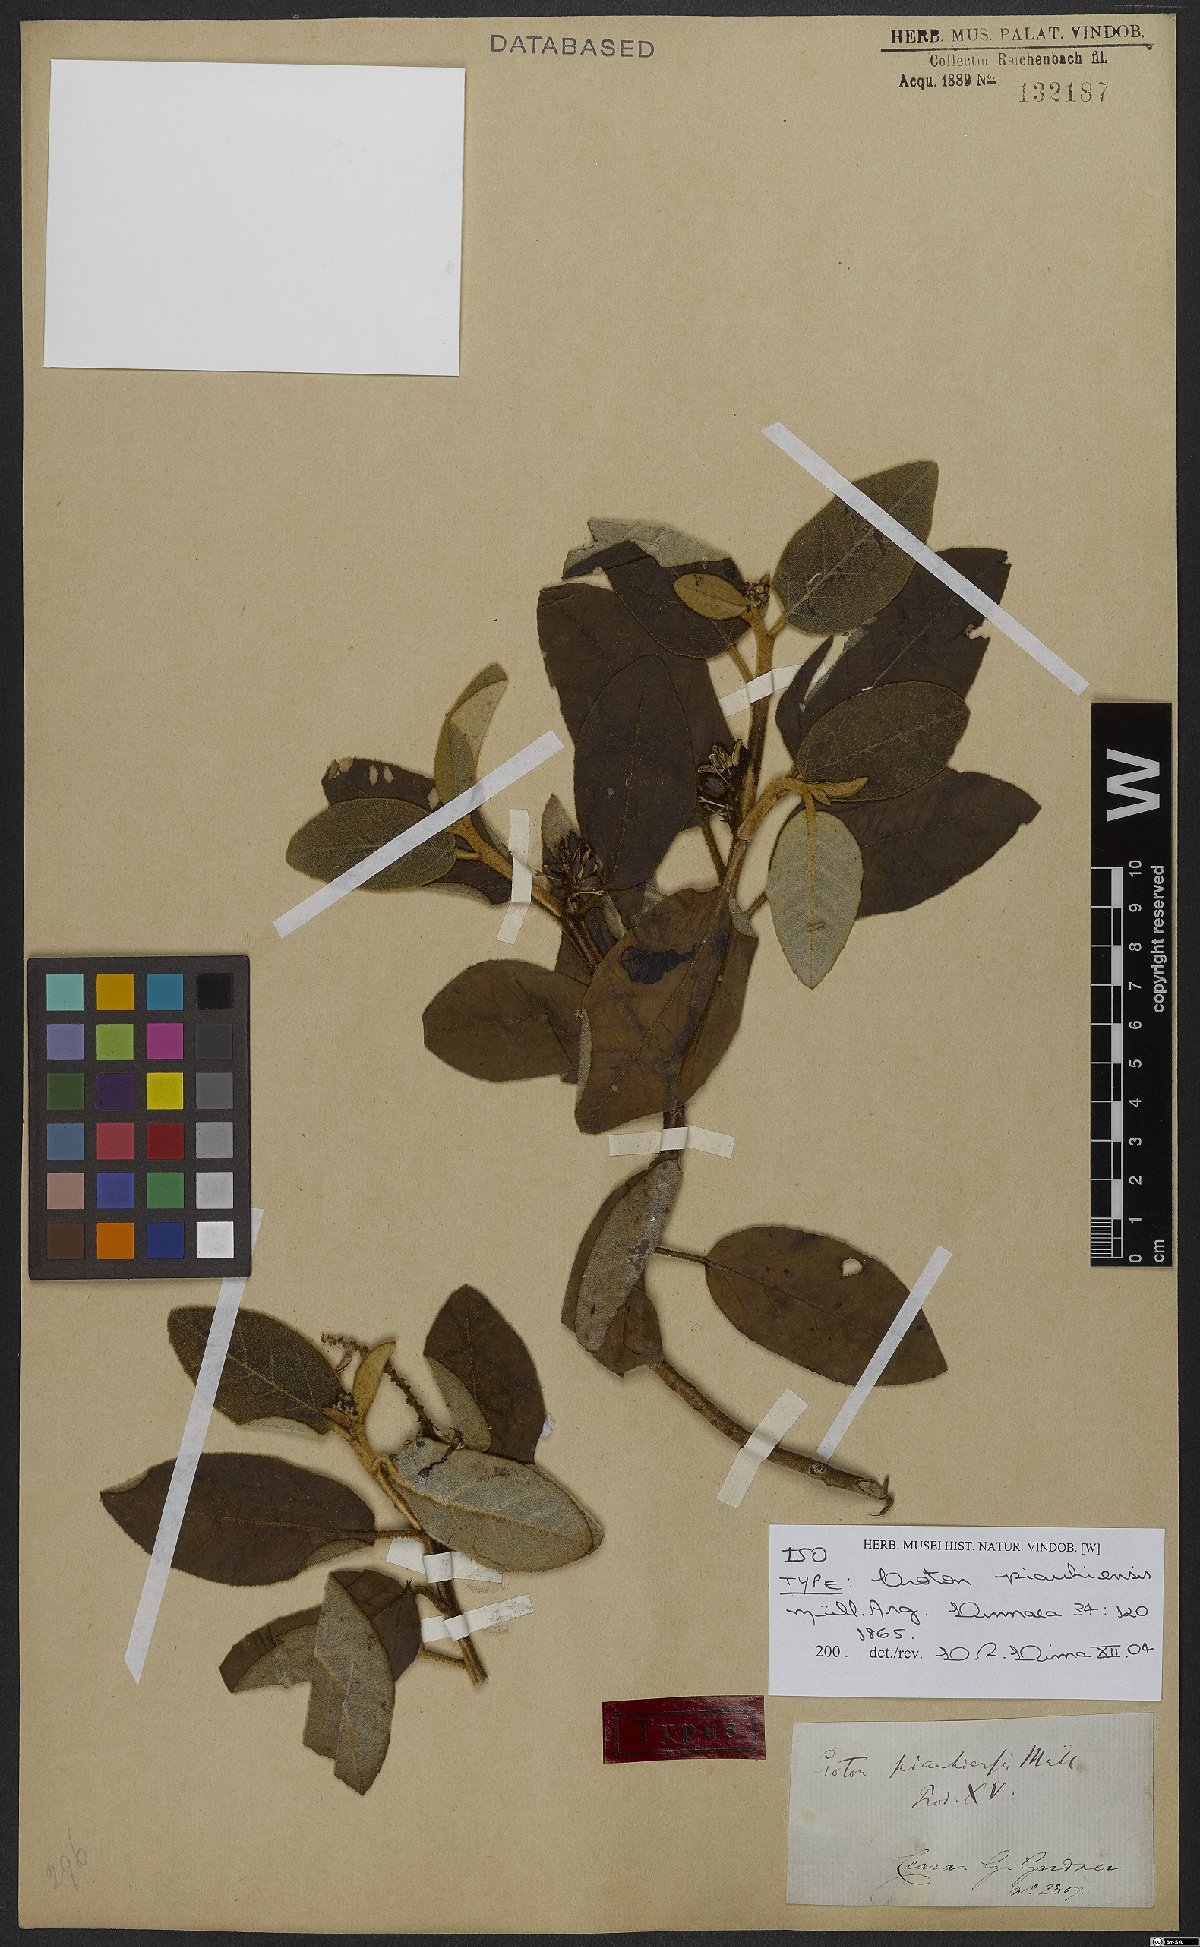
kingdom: Plantae
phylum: Tracheophyta
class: Magnoliopsida
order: Malpighiales
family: Euphorbiaceae
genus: Croton
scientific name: Croton piauhiensis
